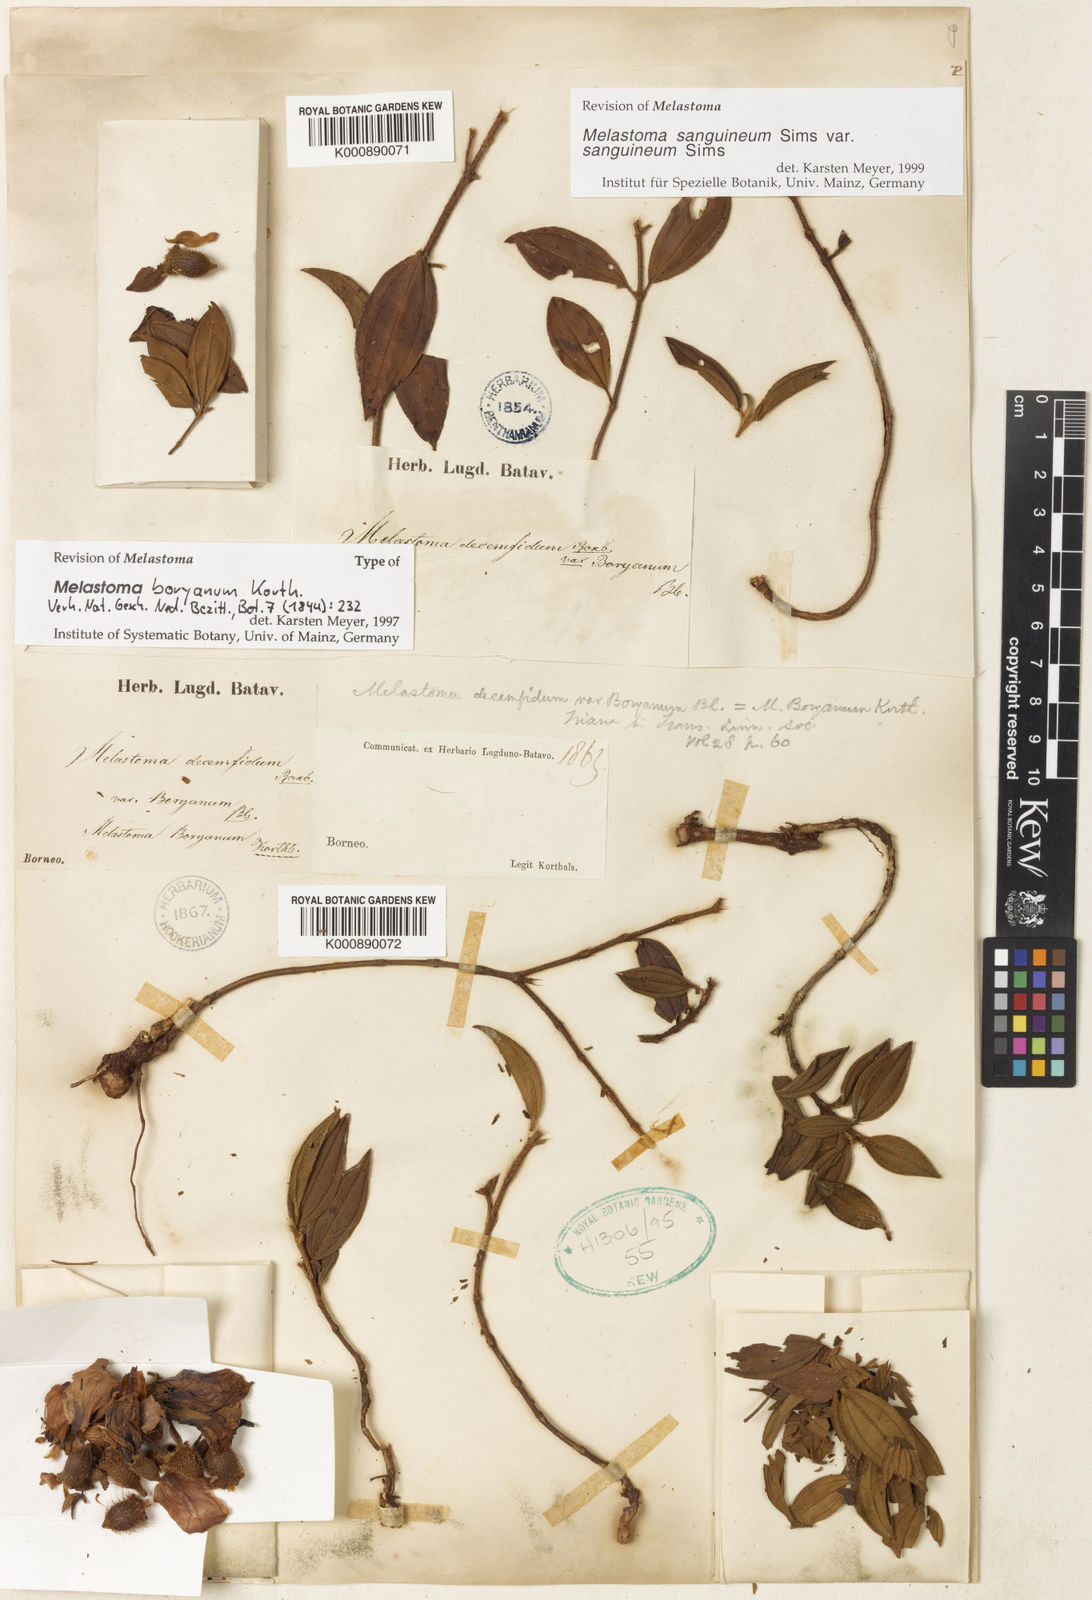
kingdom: Plantae
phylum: Tracheophyta
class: Magnoliopsida
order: Myrtales
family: Melastomataceae
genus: Melastoma
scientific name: Melastoma sanguineum
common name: Red melastome
